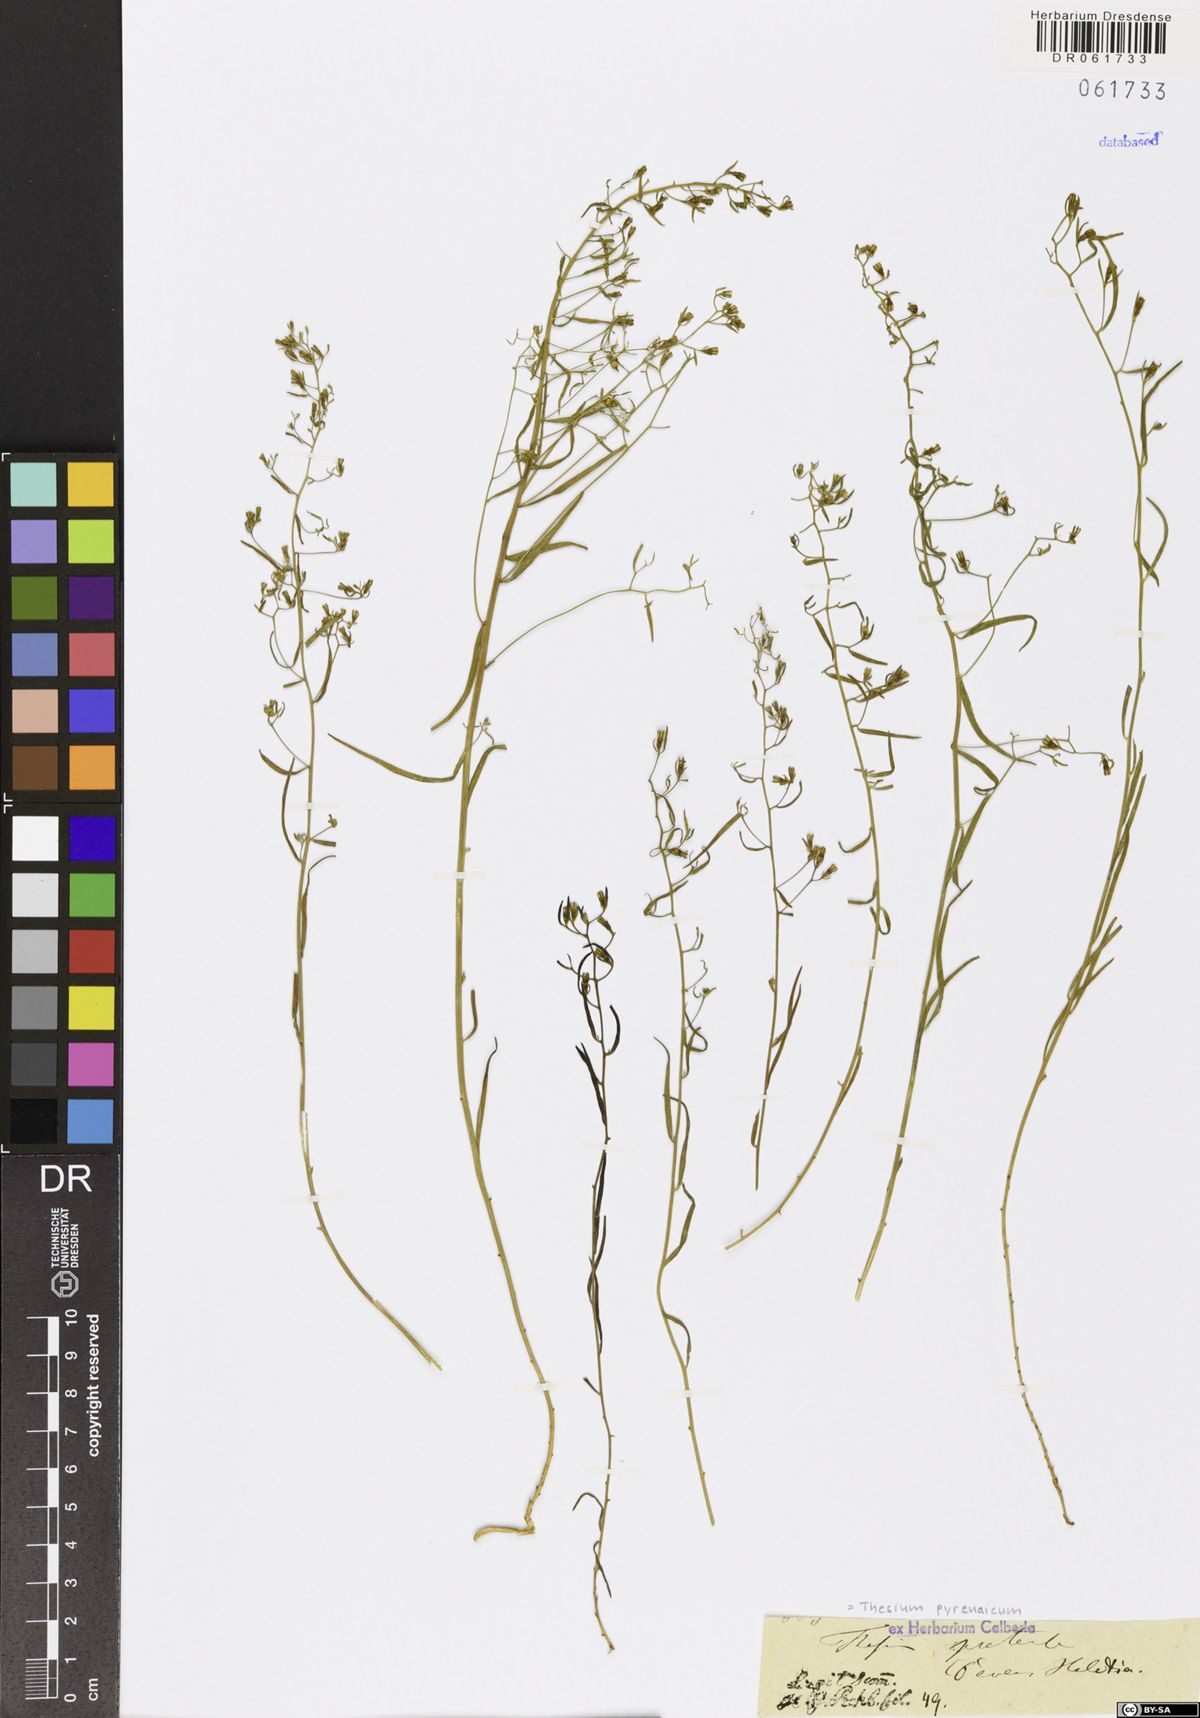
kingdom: Plantae
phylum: Tracheophyta
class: Magnoliopsida
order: Santalales
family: Thesiaceae
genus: Thesium
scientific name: Thesium pyrenaicum
